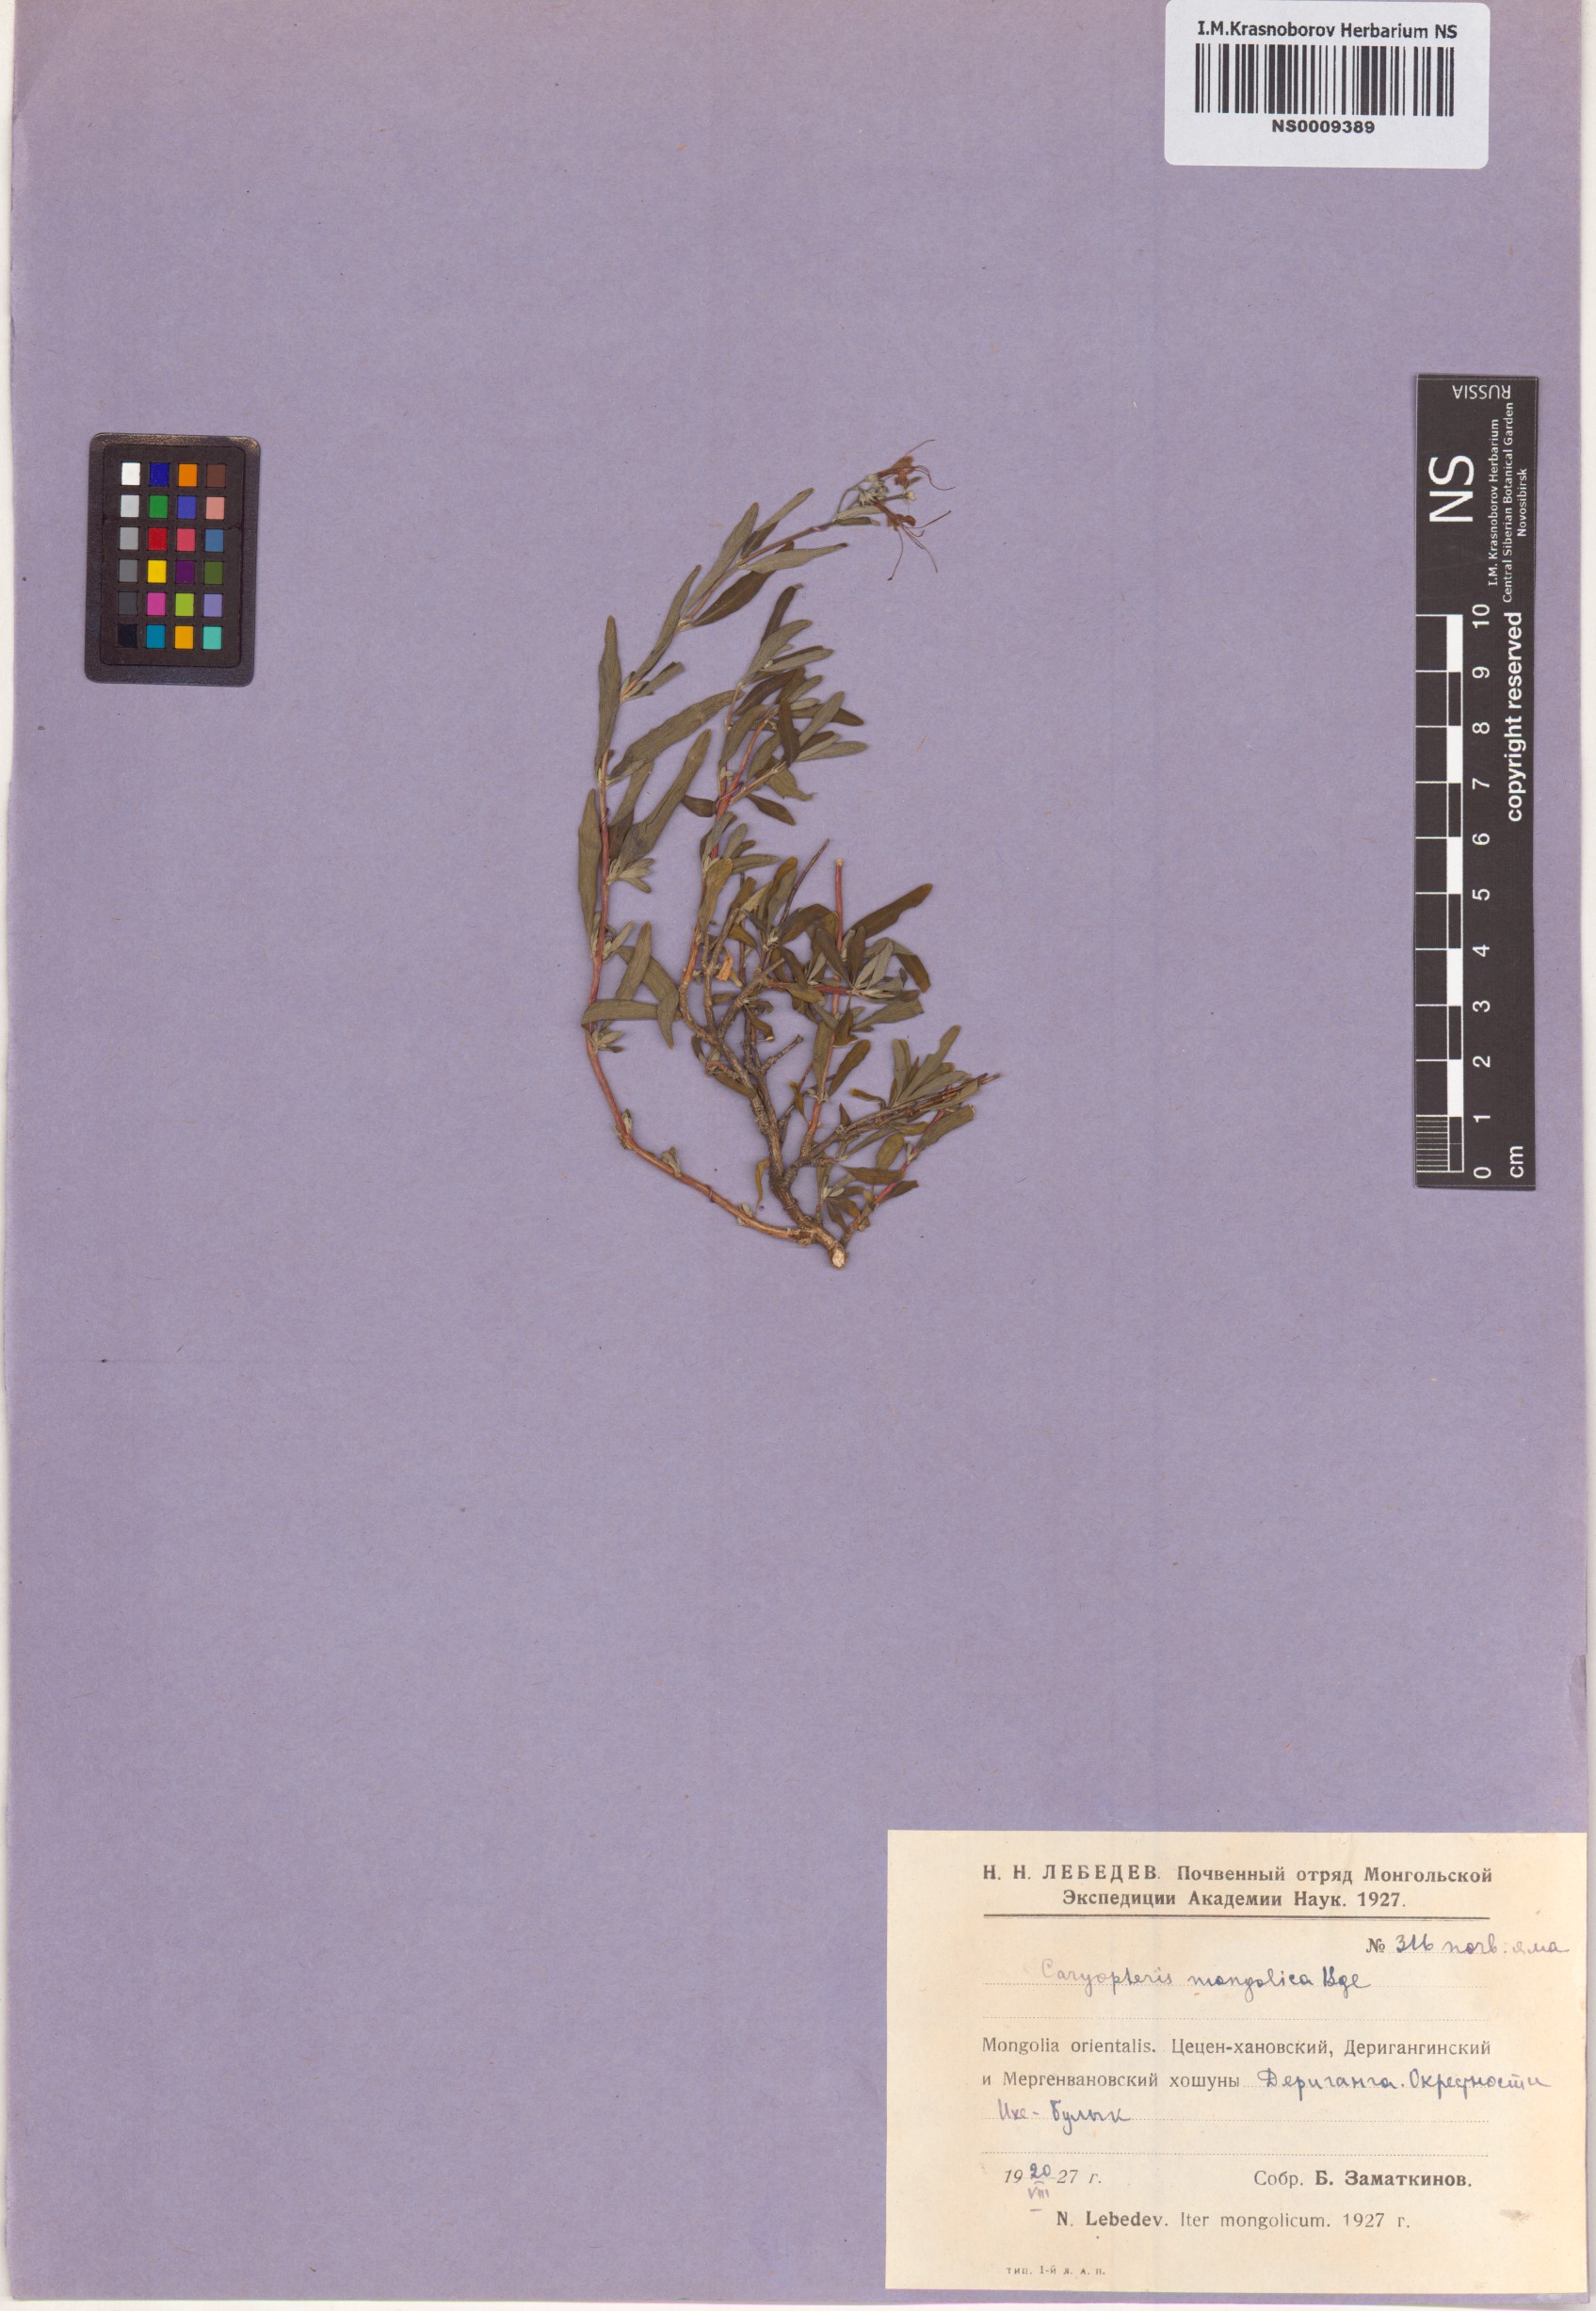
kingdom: Plantae
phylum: Tracheophyta
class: Magnoliopsida
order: Lamiales
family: Lamiaceae
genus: Caryopteris
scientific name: Caryopteris mongholica
